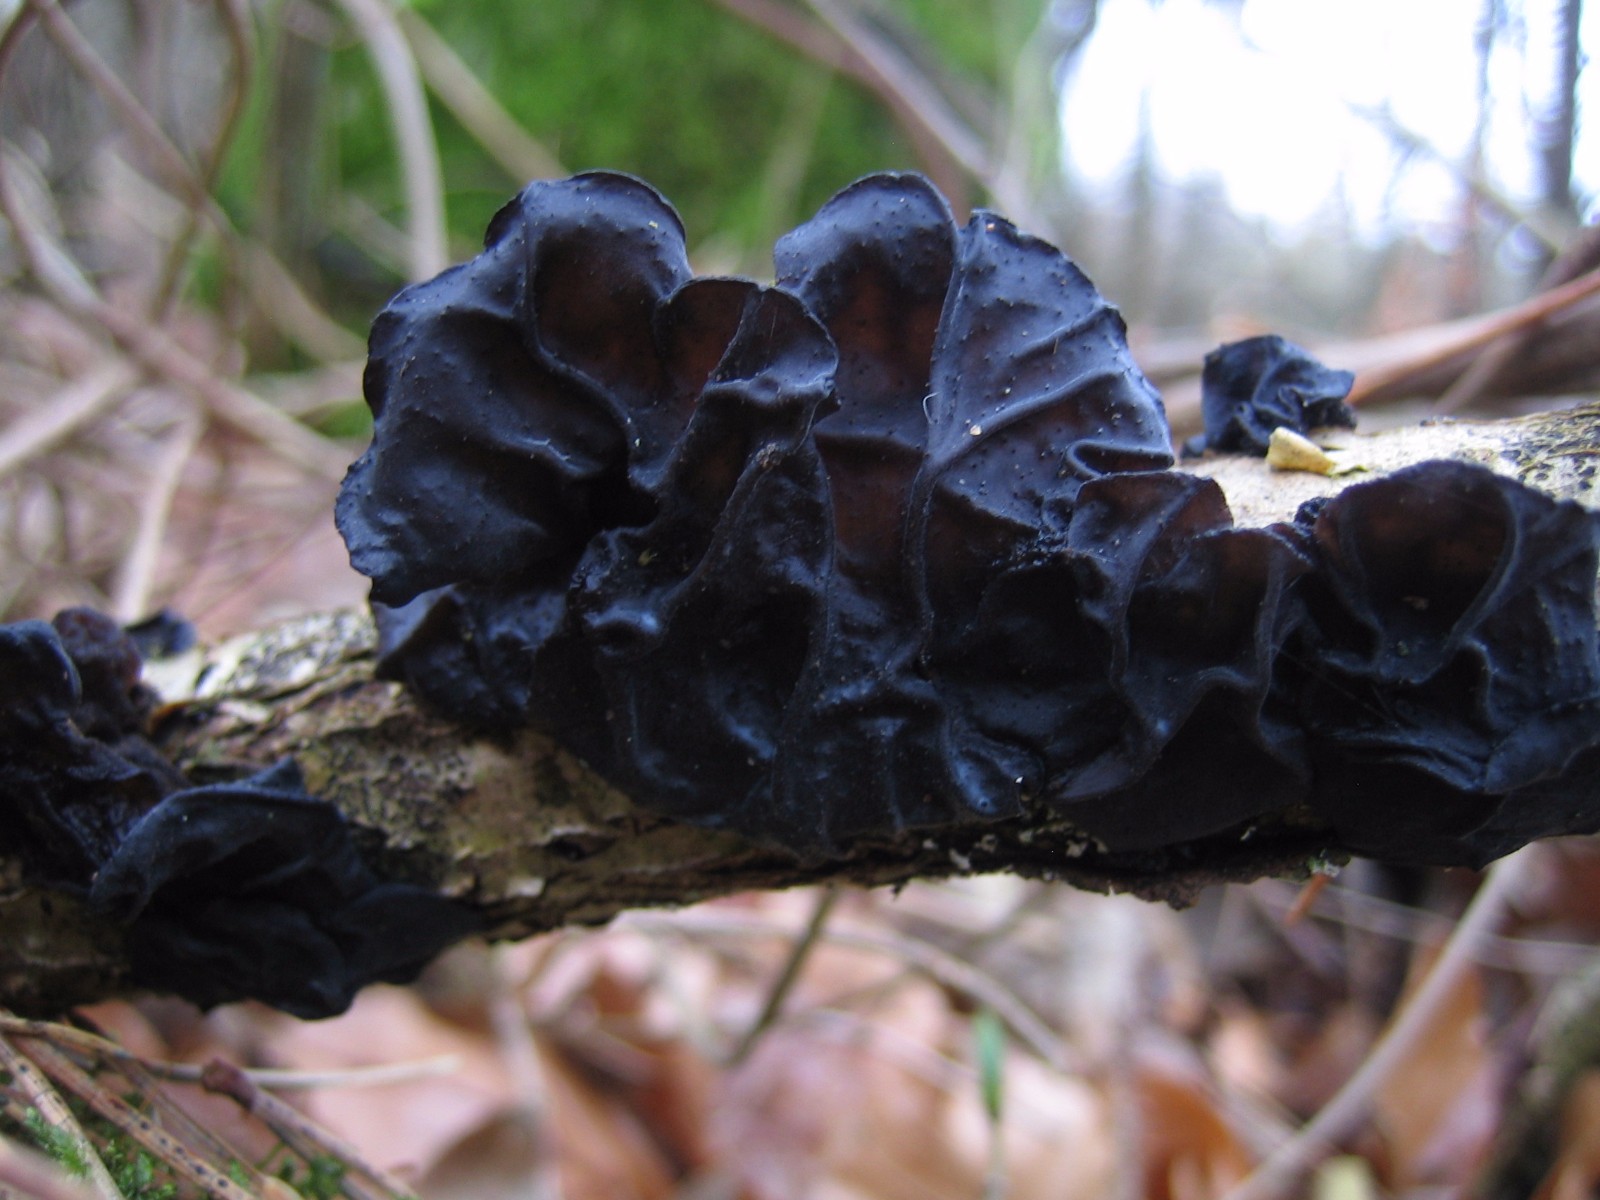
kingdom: Fungi
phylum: Basidiomycota
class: Agaricomycetes
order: Auriculariales
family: Auriculariaceae
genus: Exidia
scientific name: Exidia glandulosa
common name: ege-bævretop
